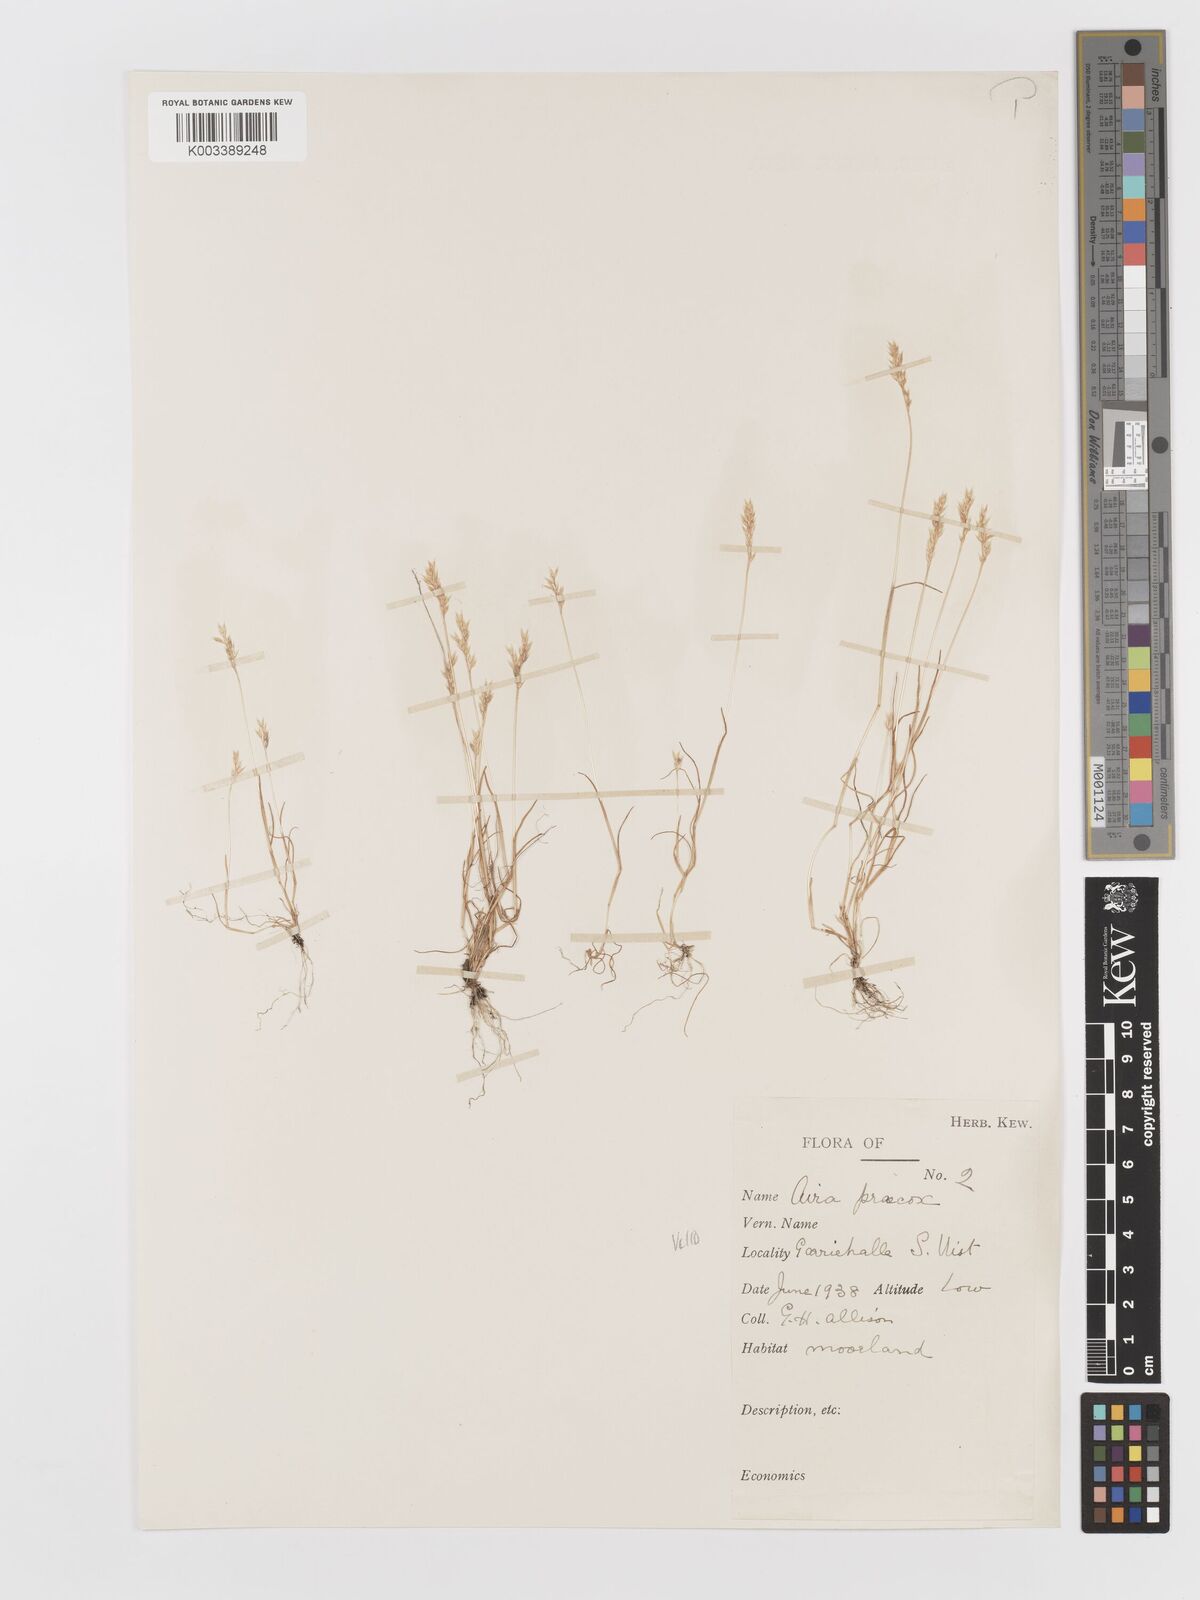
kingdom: Plantae
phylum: Tracheophyta
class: Liliopsida
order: Poales
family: Poaceae
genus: Aira
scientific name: Aira praecox
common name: Early hair-grass
